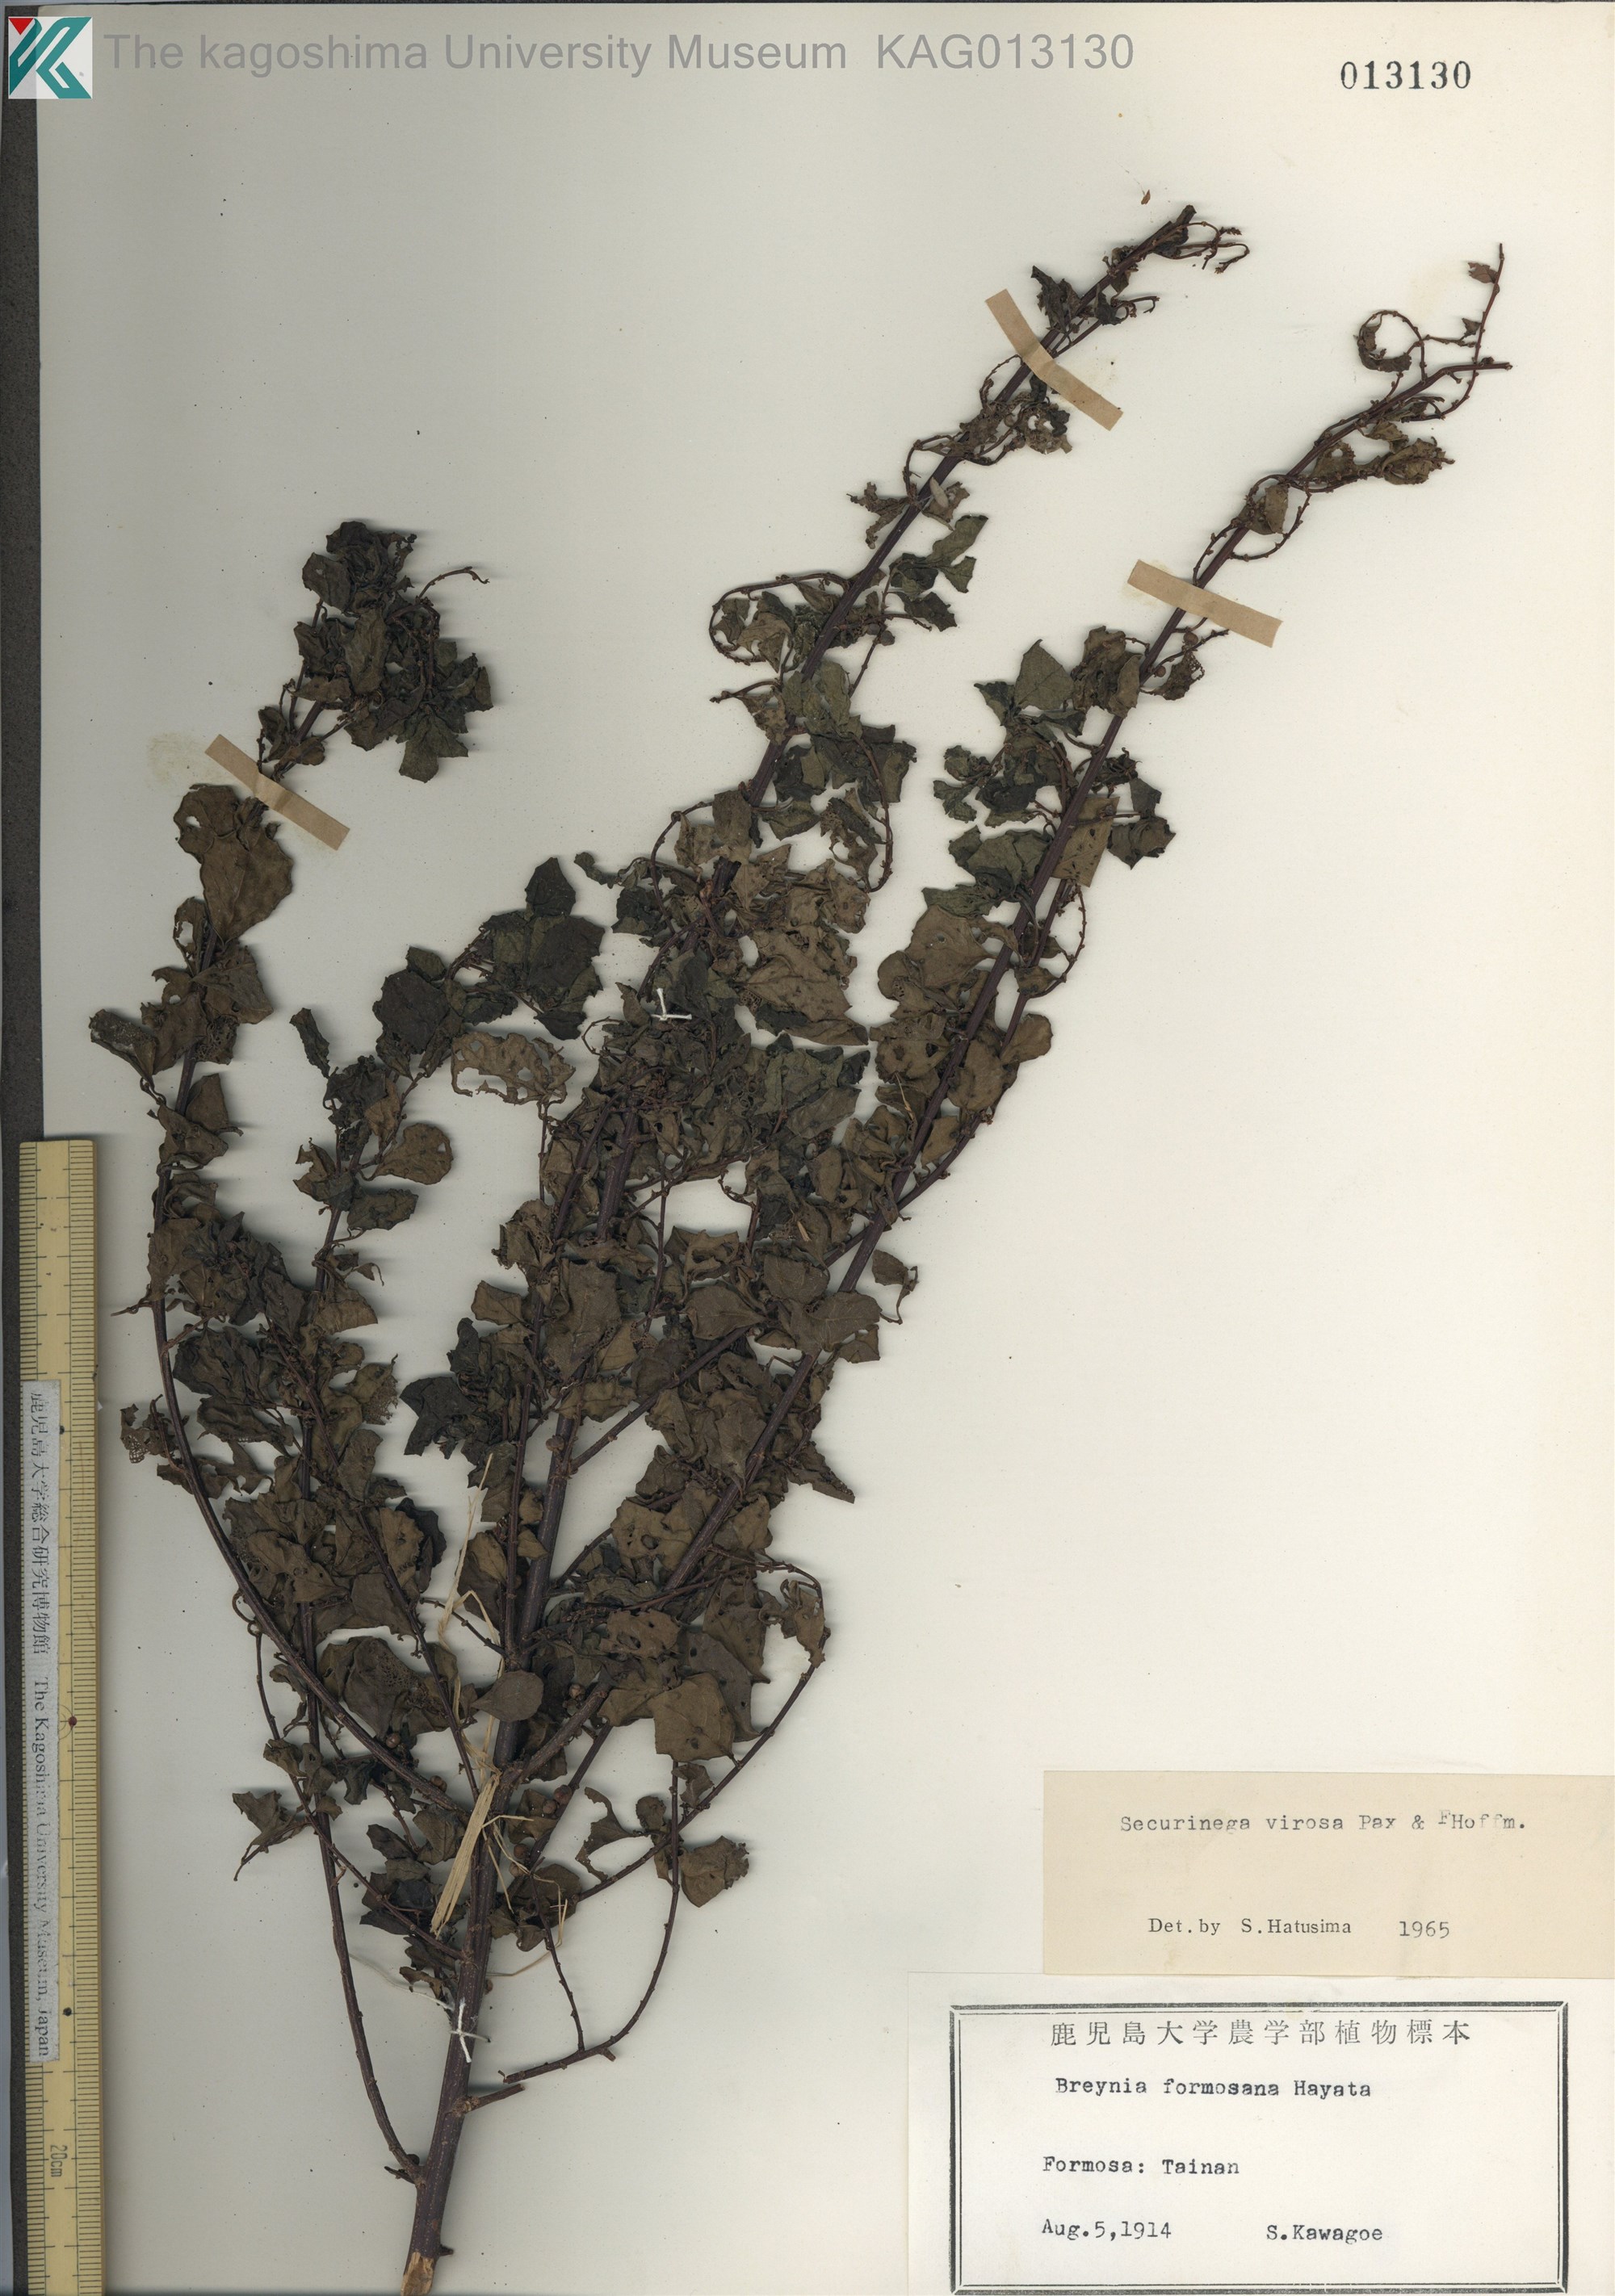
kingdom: Plantae
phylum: Tracheophyta
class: Magnoliopsida
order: Malpighiales
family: Phyllanthaceae
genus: Flueggea
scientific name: Flueggea virosa
